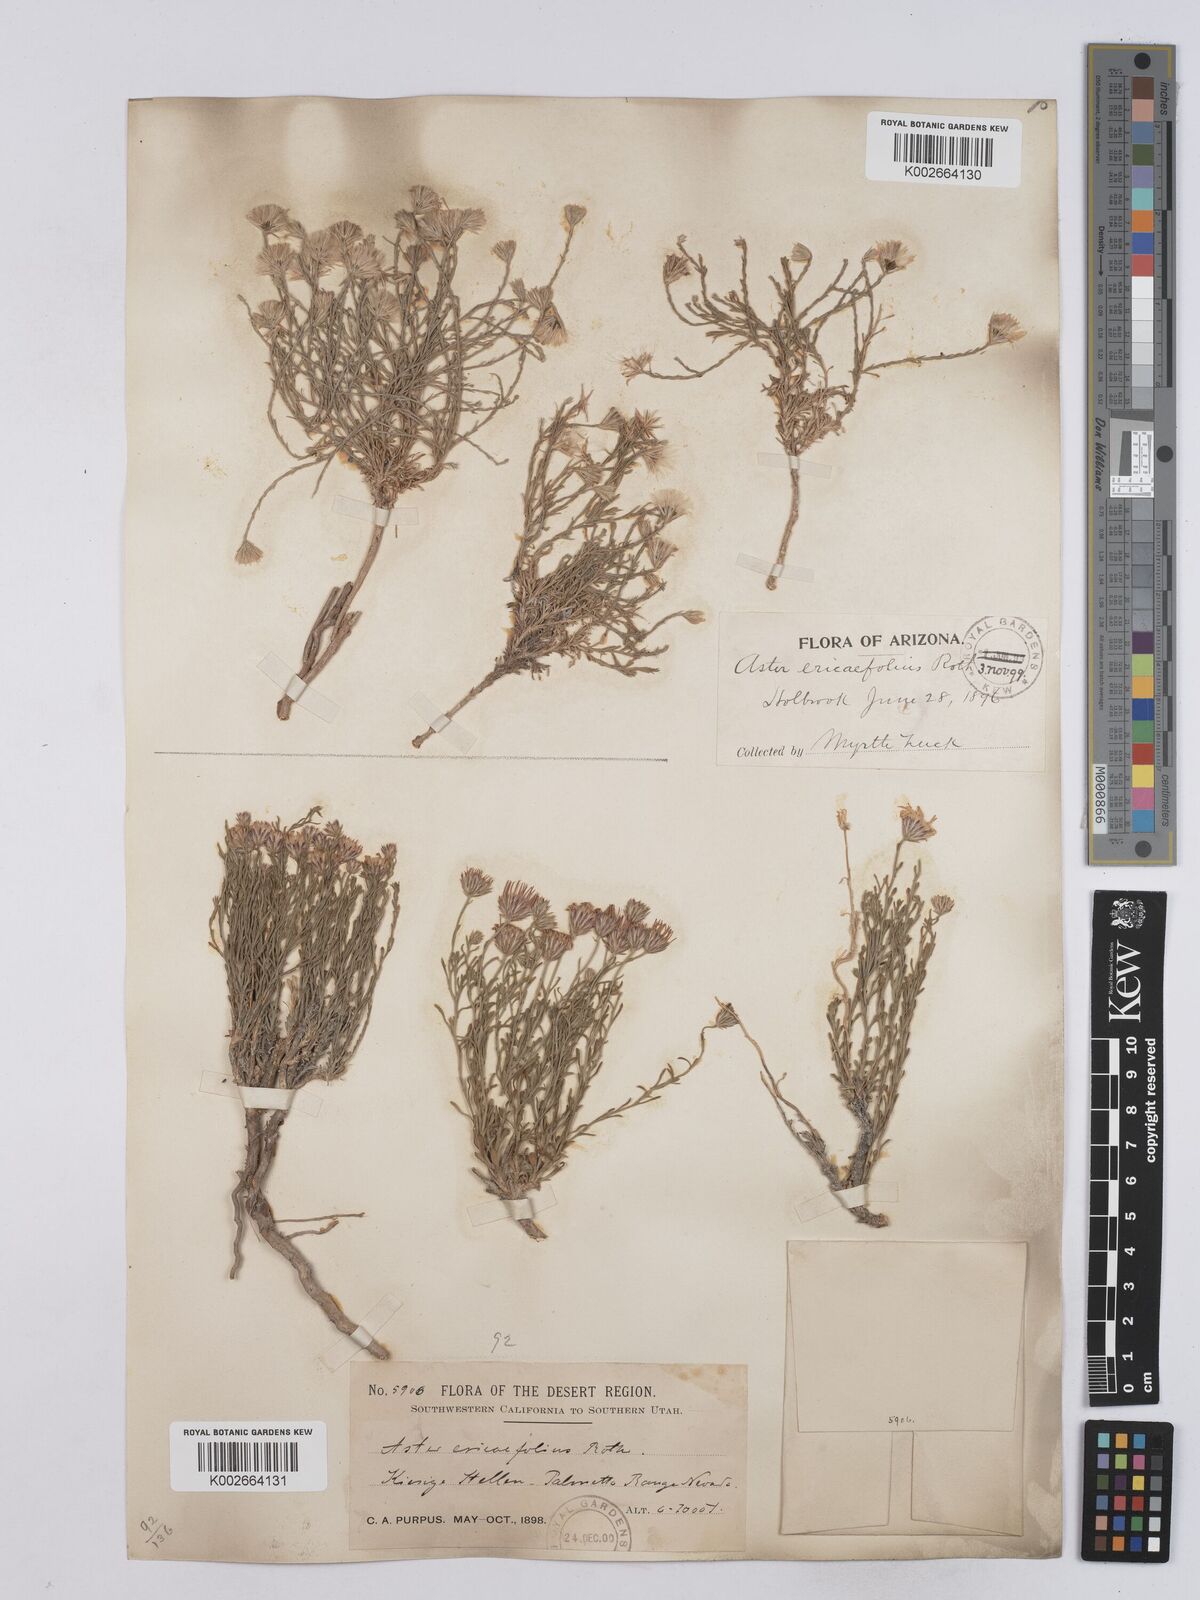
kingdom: Plantae
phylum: Tracheophyta
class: Magnoliopsida
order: Asterales
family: Asteraceae
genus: Chaetopappa
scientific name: Chaetopappa ericoides
